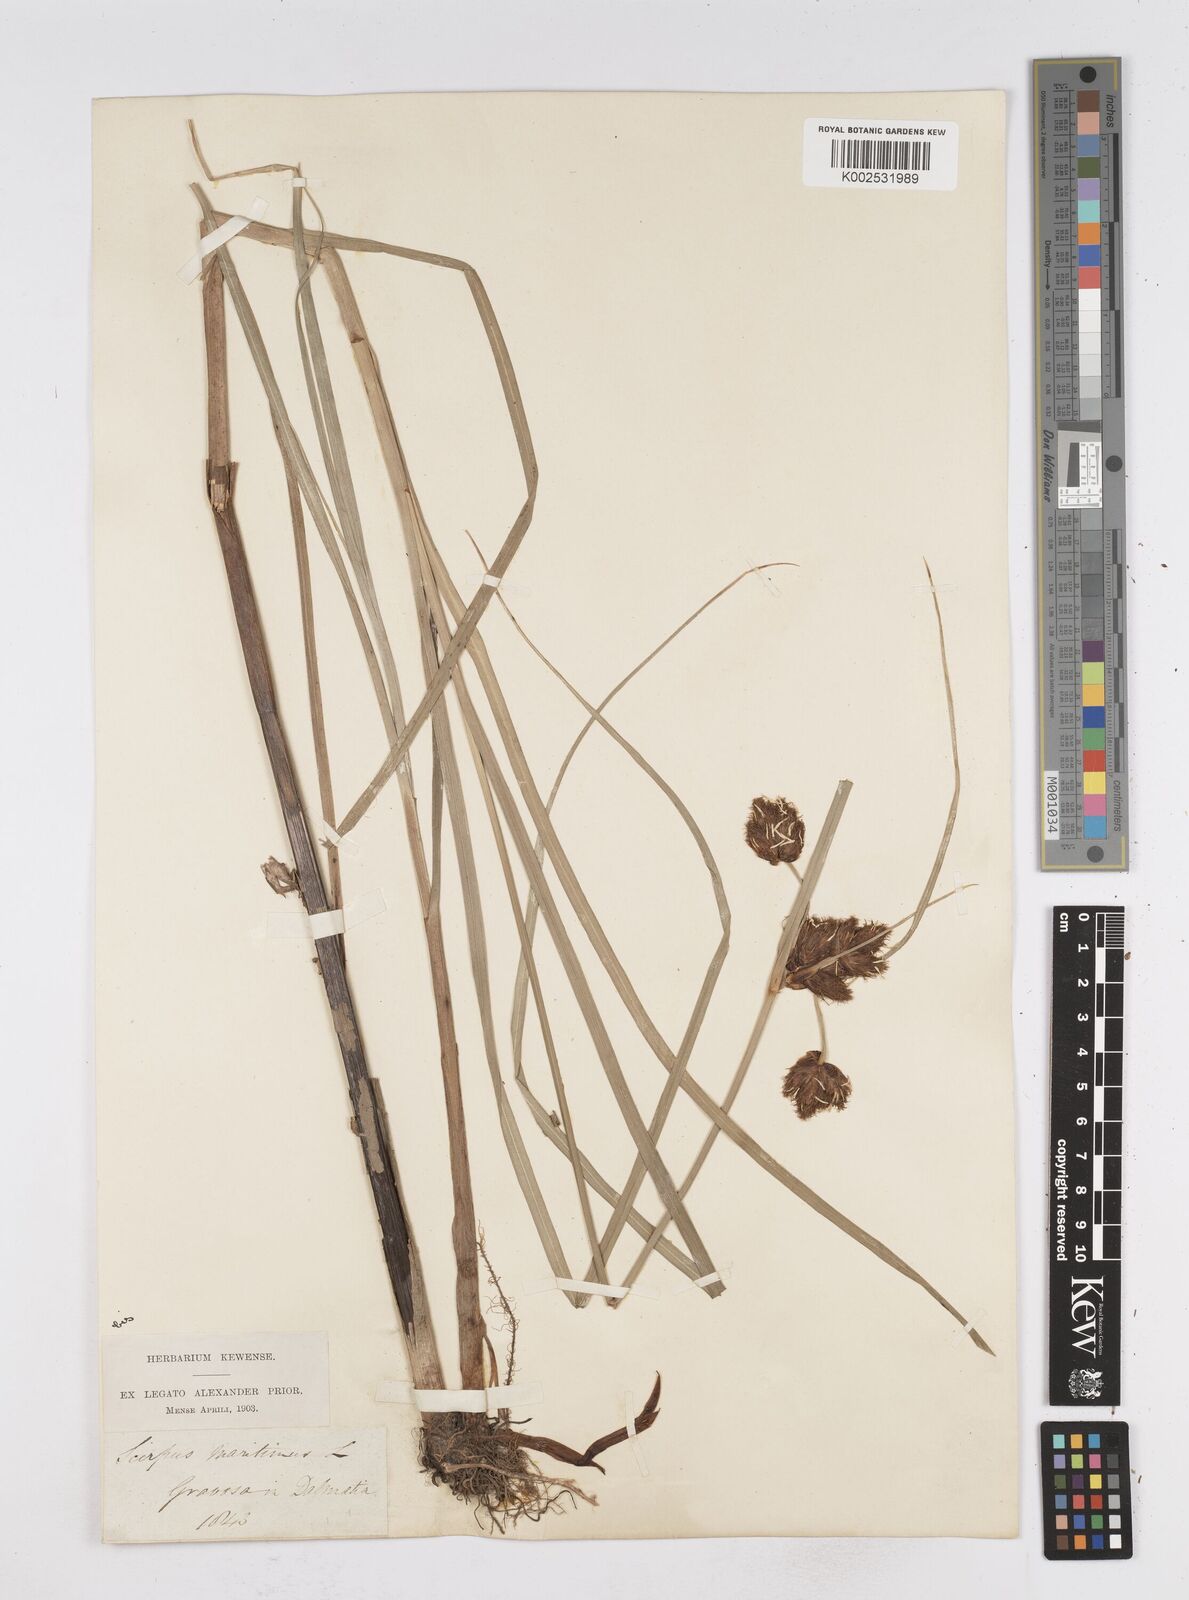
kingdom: Plantae
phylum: Tracheophyta
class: Liliopsida
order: Poales
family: Cyperaceae
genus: Bolboschoenus
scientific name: Bolboschoenus maritimus
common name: Sea club-rush
